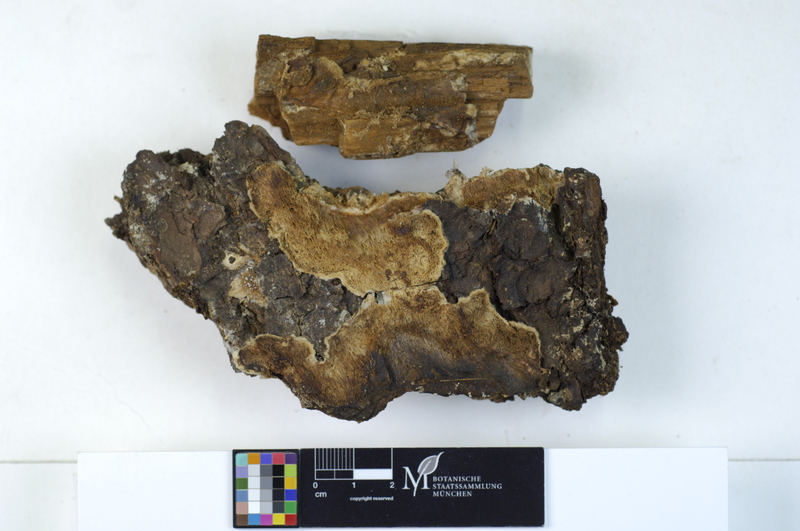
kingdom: Fungi
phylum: Basidiomycota
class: Agaricomycetes
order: Polyporales
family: Fomitopsidaceae
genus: Parmastomyces
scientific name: Parmastomyces kravtzevianus
